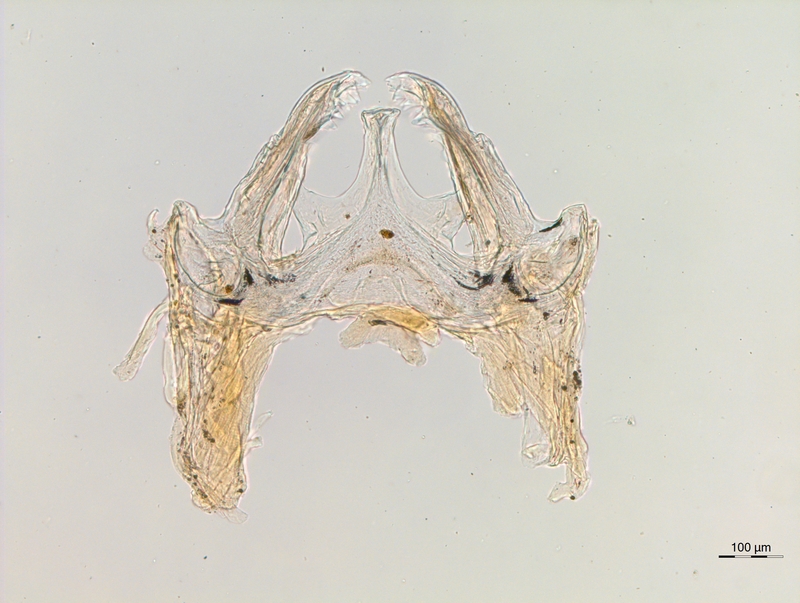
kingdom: Animalia
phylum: Arthropoda
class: Diplopoda
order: Chordeumatida
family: Anthogonidae
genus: Haasia
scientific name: Haasia carinifera
